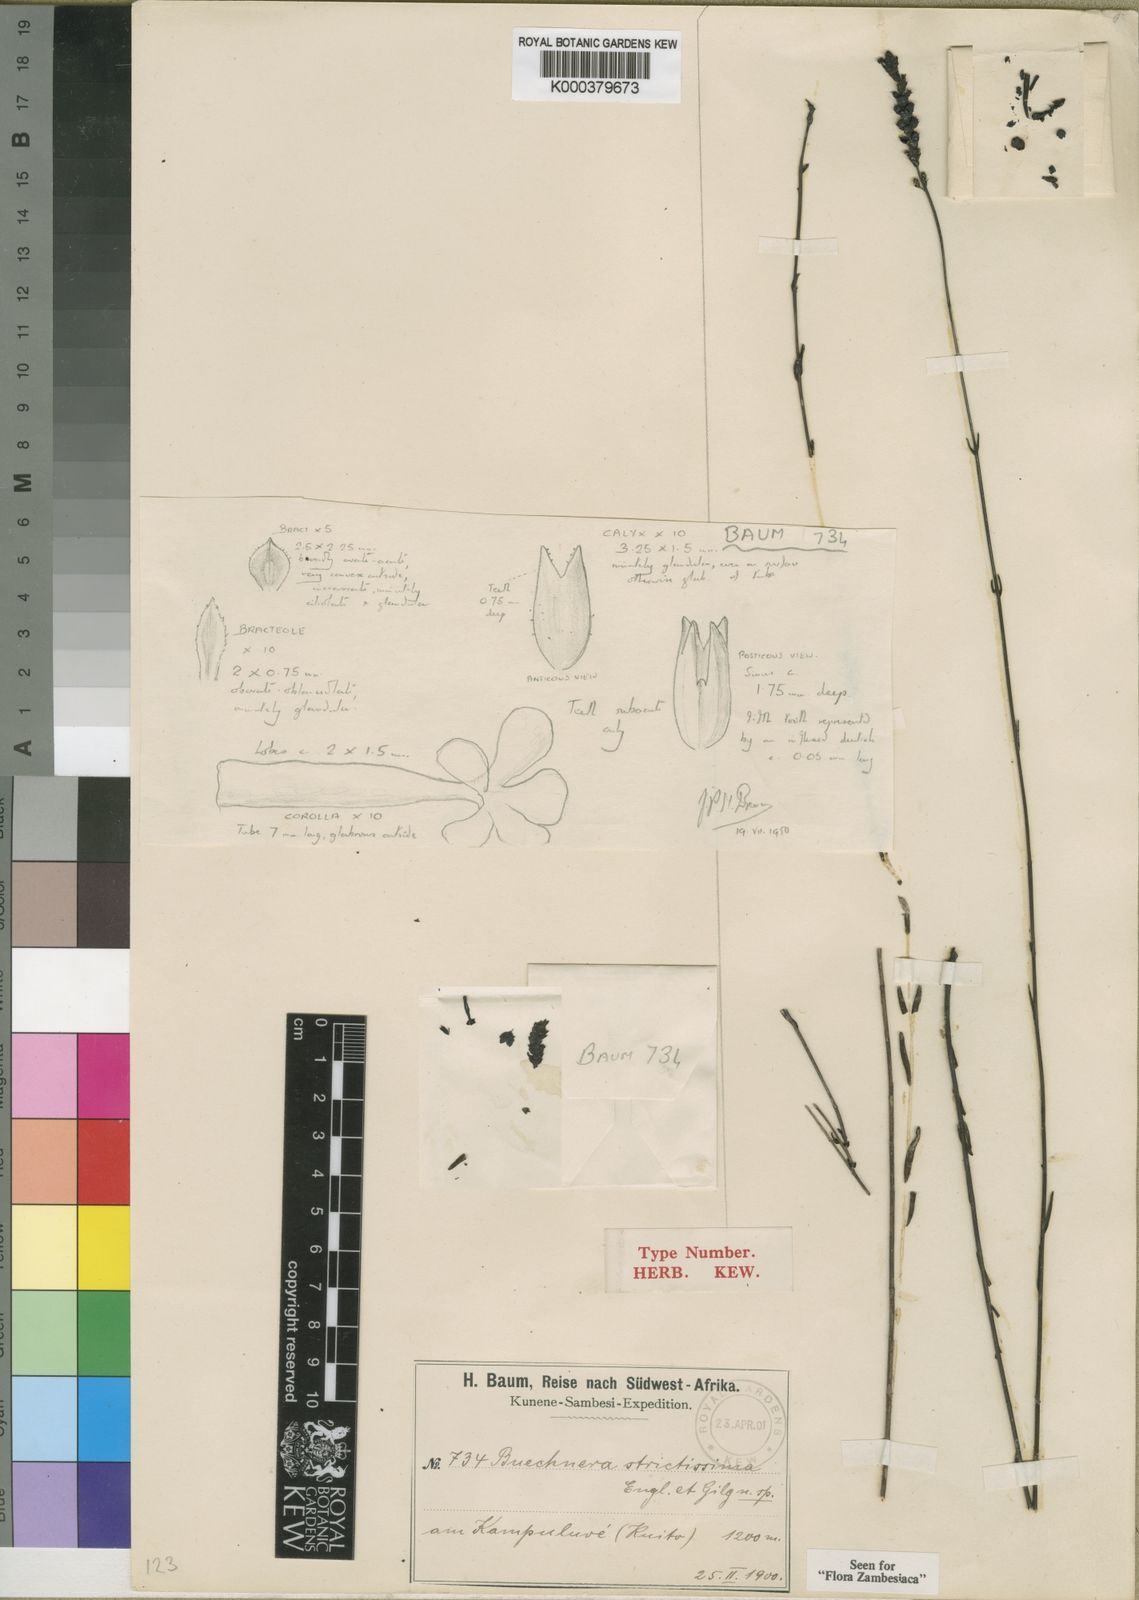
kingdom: Plantae
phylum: Tracheophyta
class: Magnoliopsida
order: Lamiales
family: Orobanchaceae
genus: Buchnera
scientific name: Buchnera strictissima
